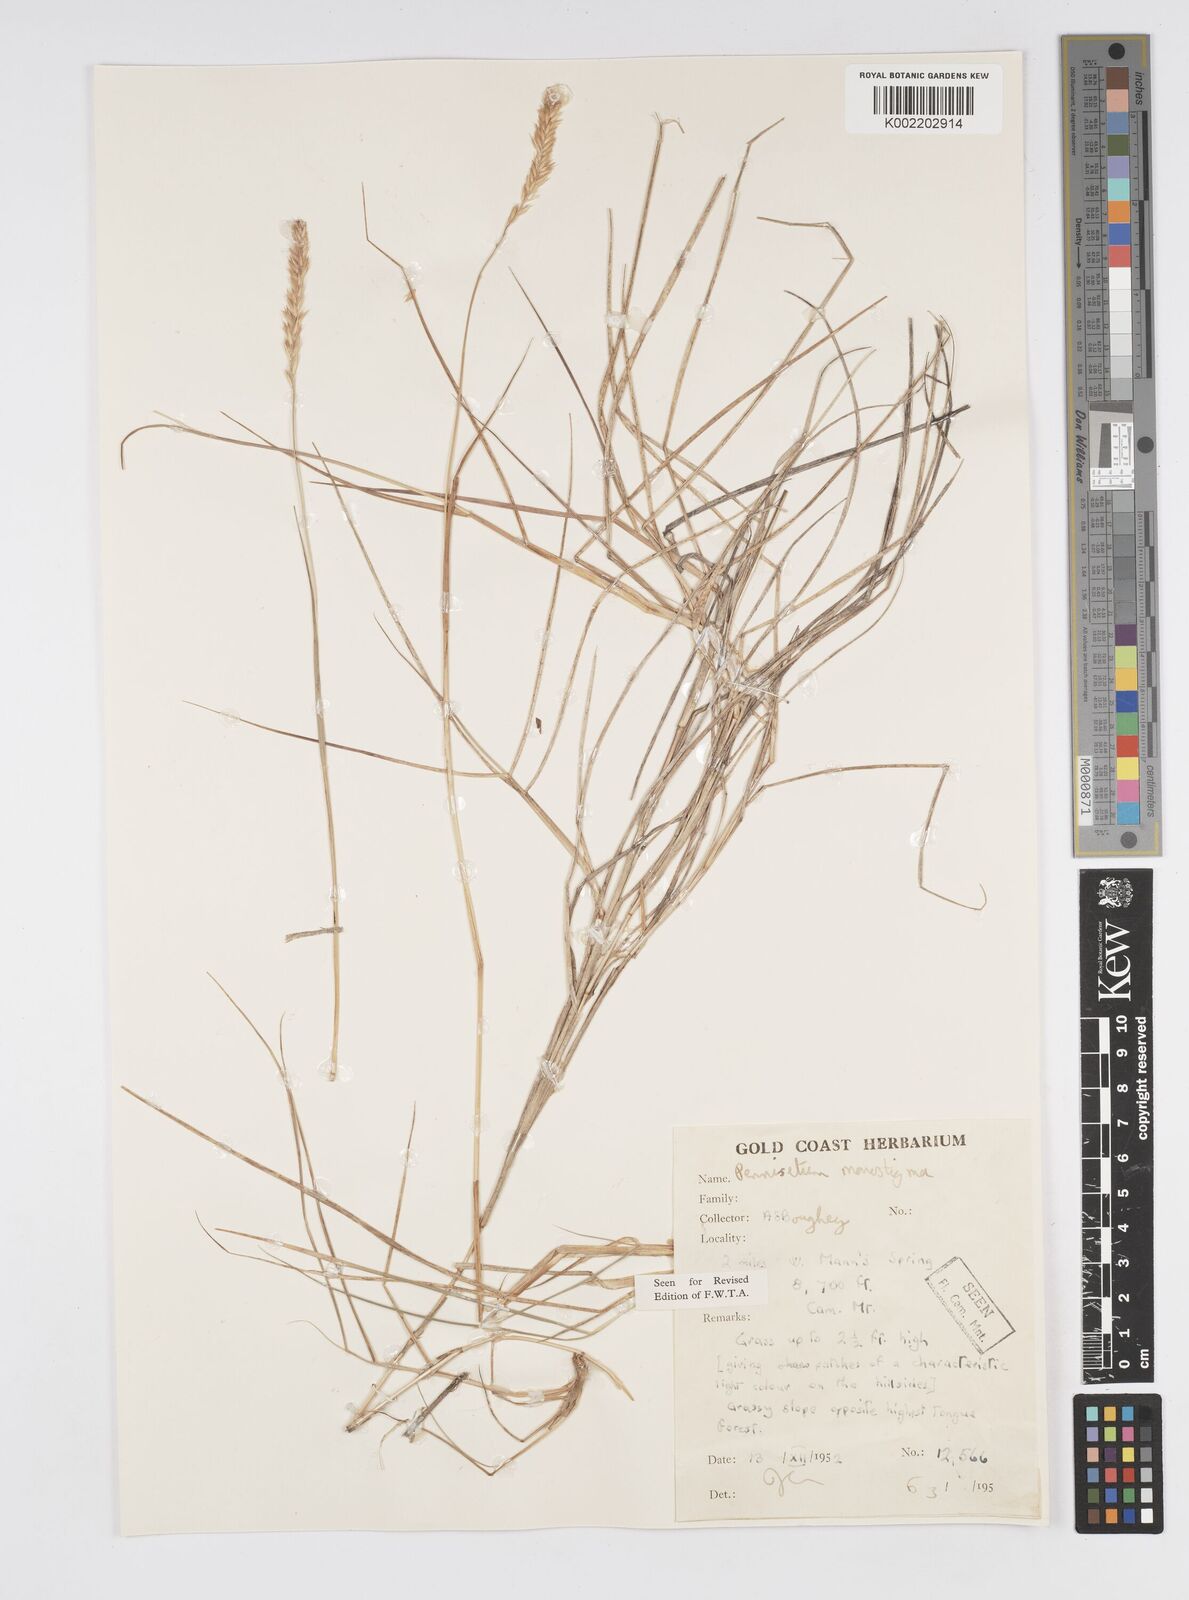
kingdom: Plantae
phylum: Tracheophyta
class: Liliopsida
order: Poales
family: Poaceae
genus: Cenchrus
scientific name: Cenchrus monostigma
